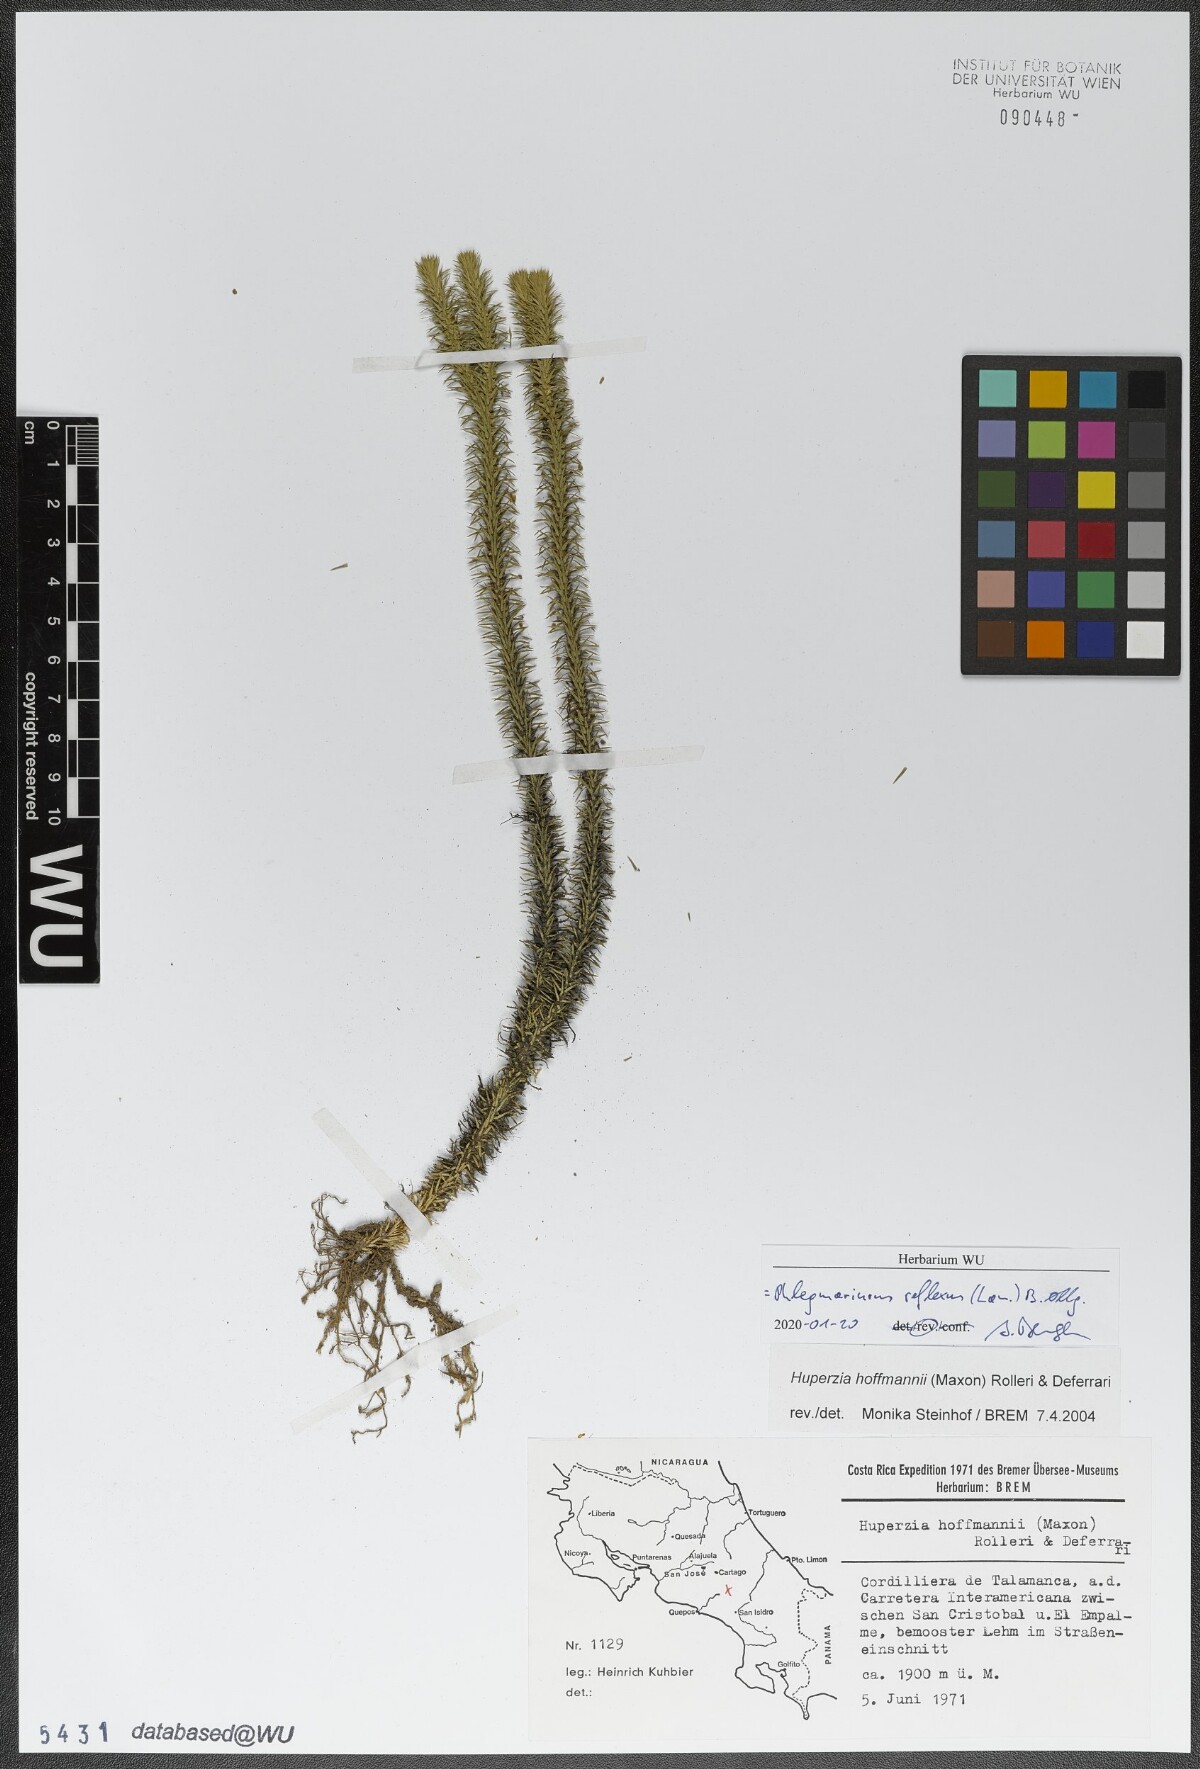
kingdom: Plantae
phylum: Tracheophyta
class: Lycopodiopsida
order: Lycopodiales
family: Lycopodiaceae
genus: Phlegmariurus
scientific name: Phlegmariurus reflexus
